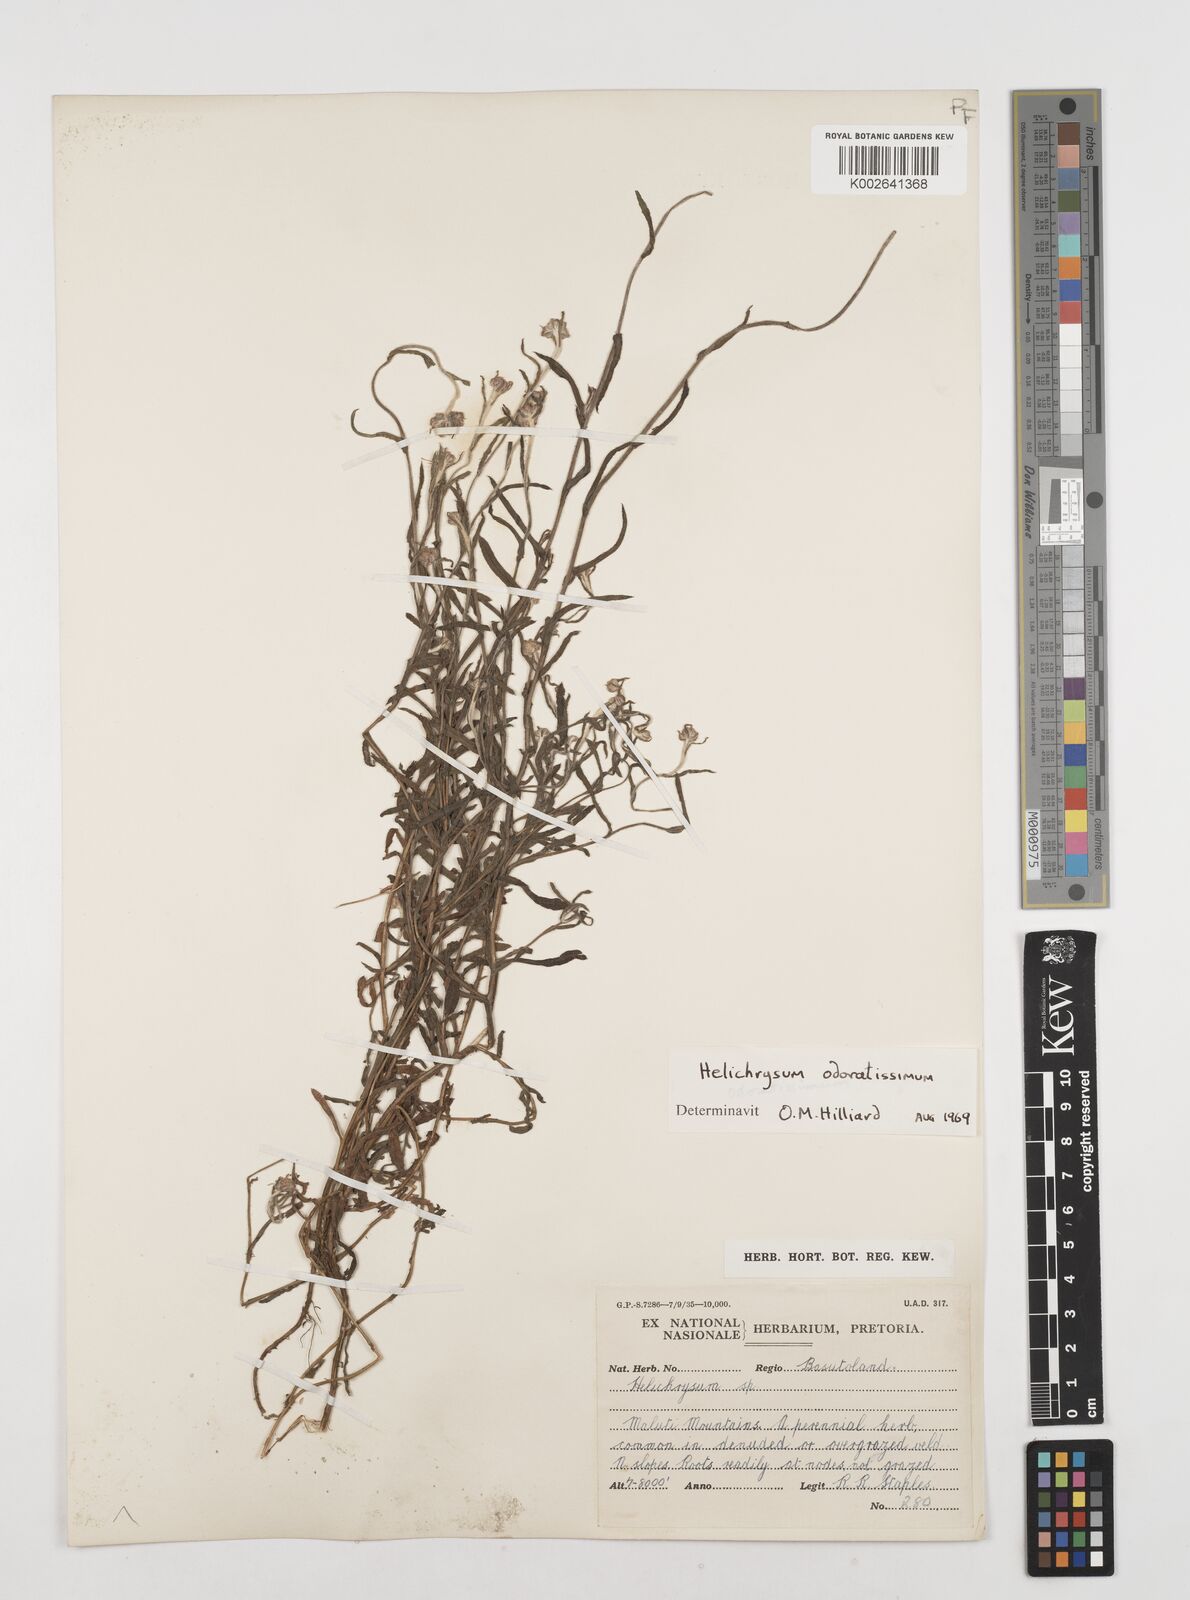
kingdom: Plantae
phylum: Tracheophyta
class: Magnoliopsida
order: Asterales
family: Asteraceae
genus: Helichrysum
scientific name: Helichrysum odoratissimum
